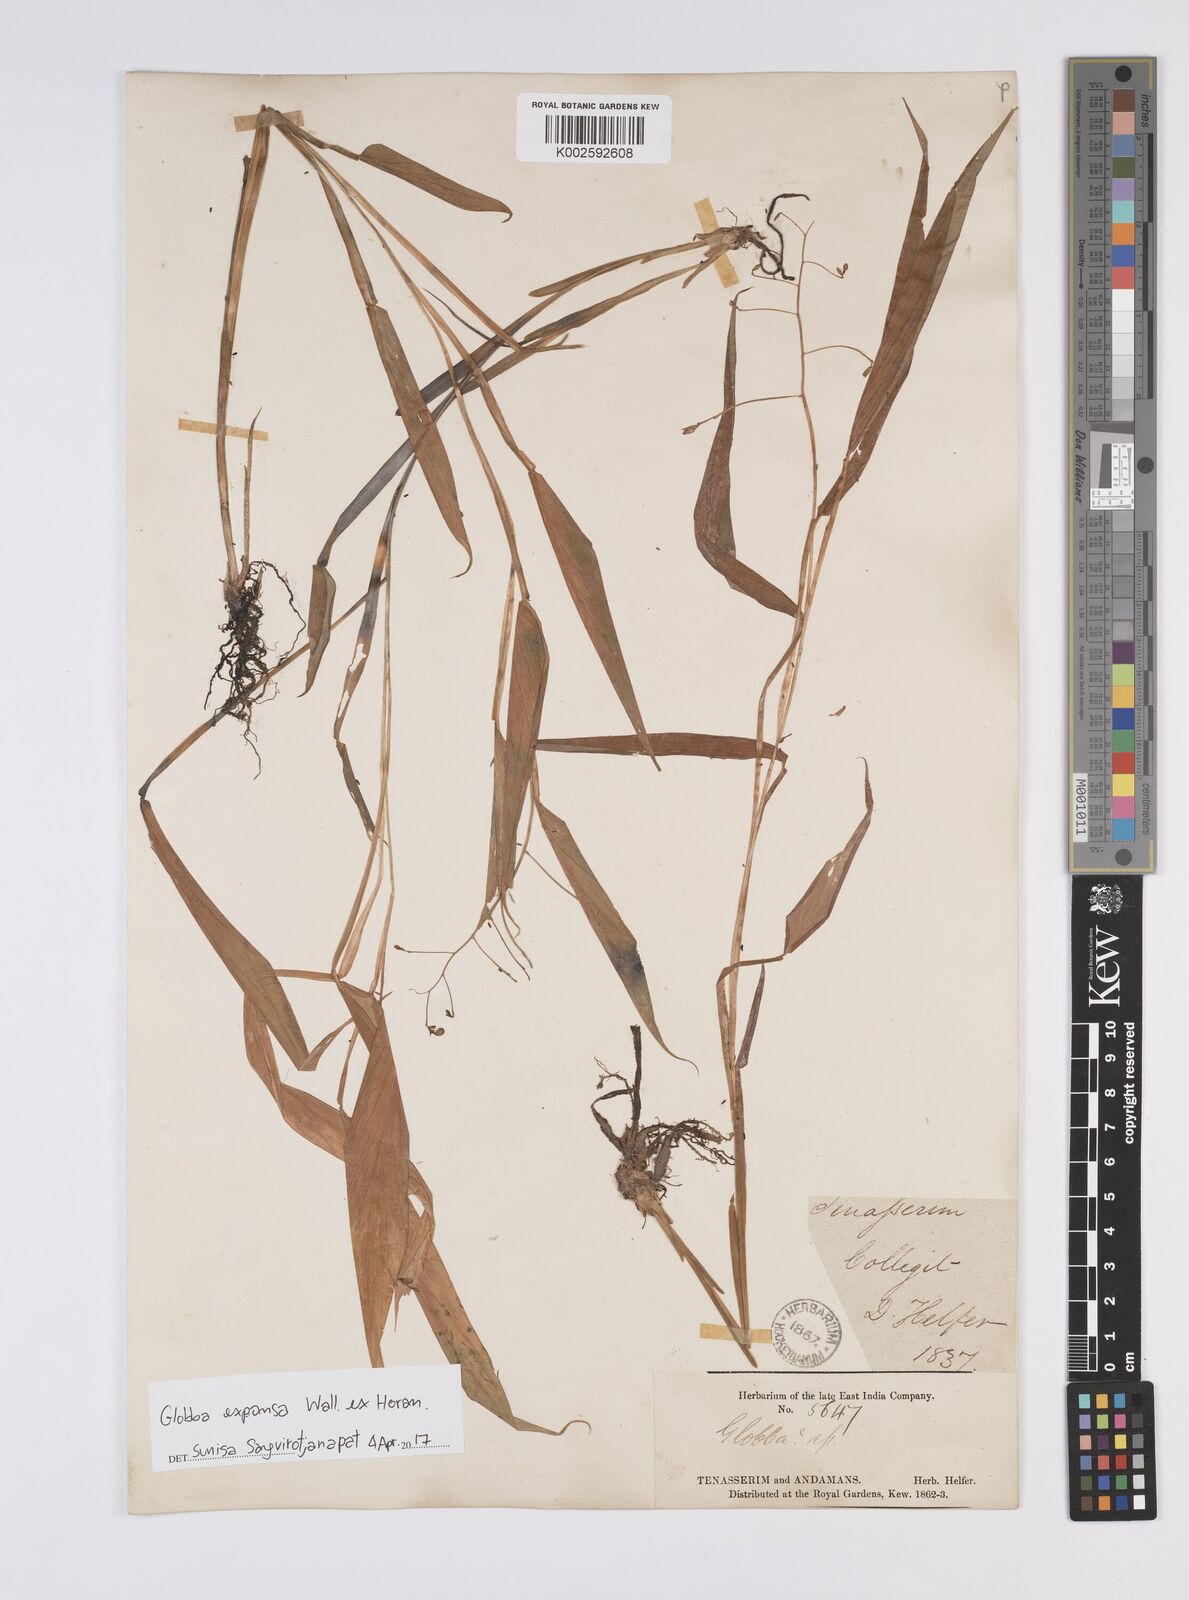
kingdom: Plantae
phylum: Tracheophyta
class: Liliopsida
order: Zingiberales
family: Zingiberaceae
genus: Globba
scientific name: Globba expansa
